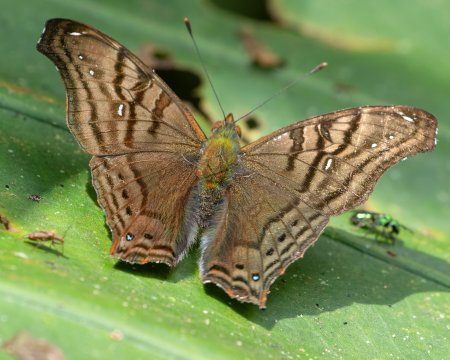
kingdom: Animalia
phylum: Arthropoda
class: Insecta
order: Lepidoptera
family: Nymphalidae
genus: Hypanartia
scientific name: Hypanartia dione
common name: Banded Mapwing
